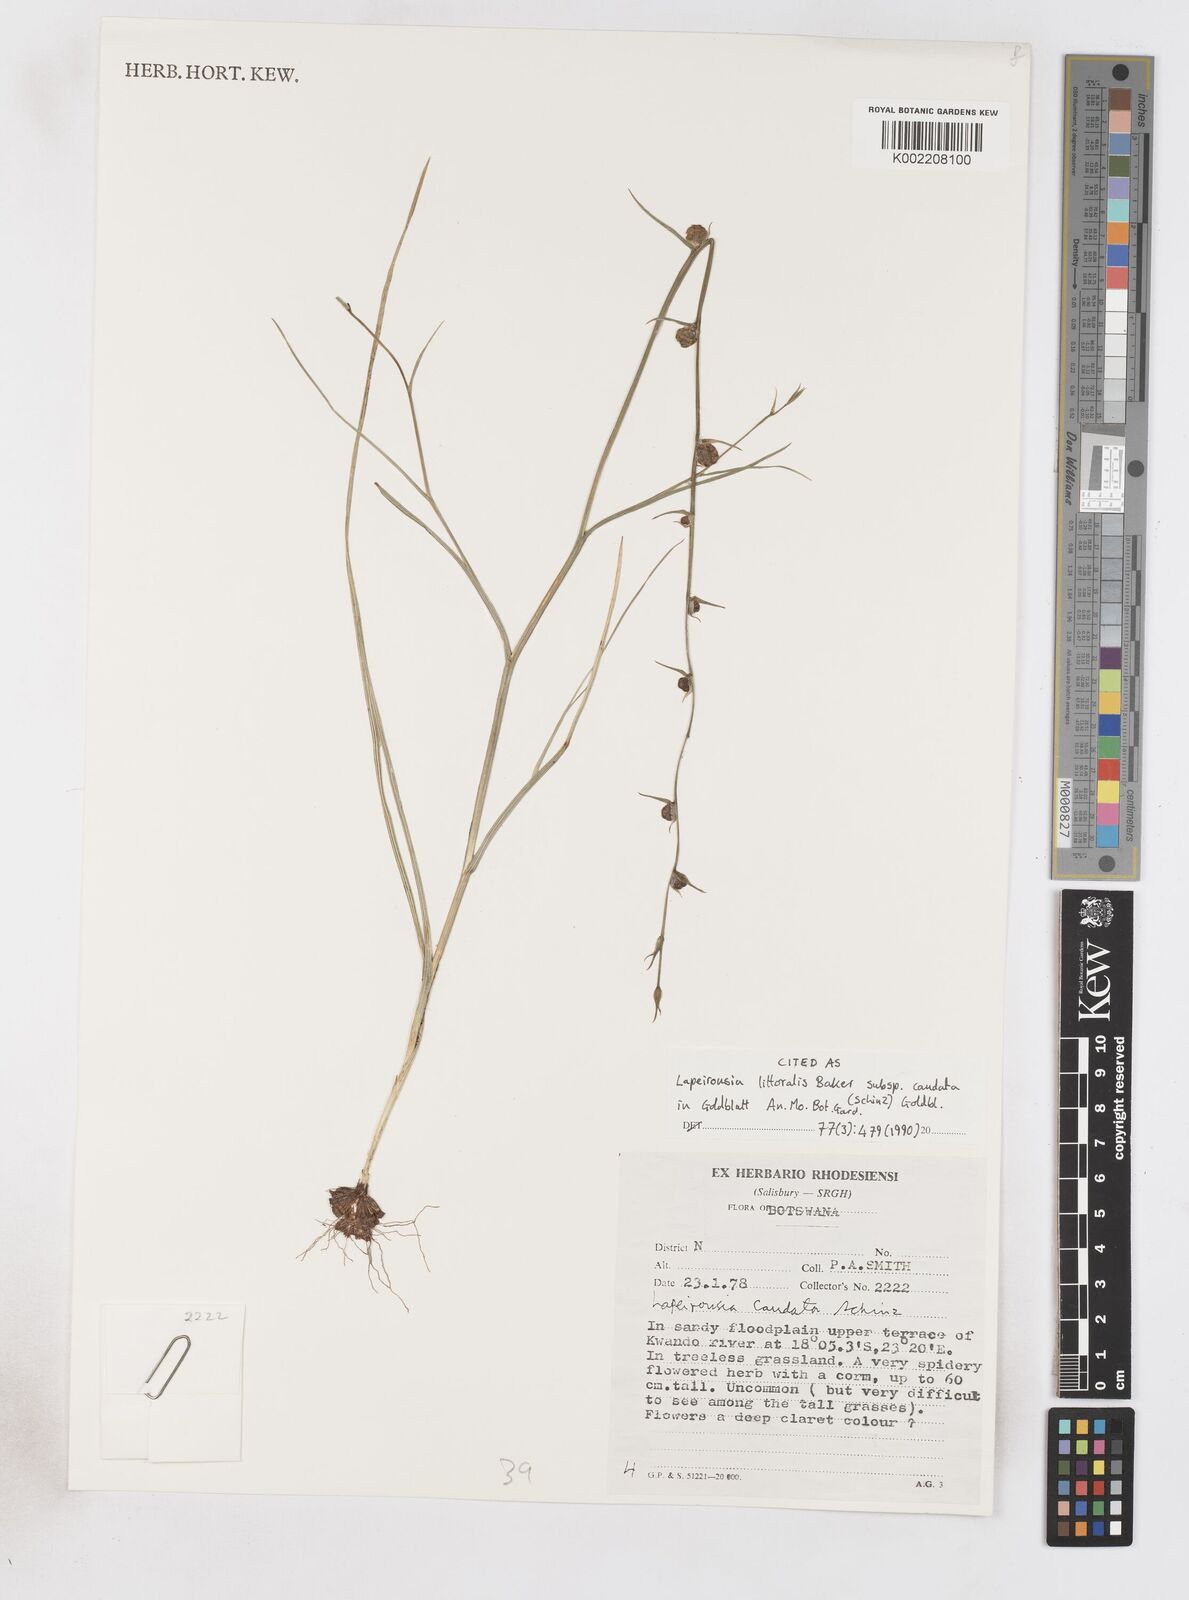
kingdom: Plantae
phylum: Tracheophyta
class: Liliopsida
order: Asparagales
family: Iridaceae
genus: Lapeirousia
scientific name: Lapeirousia caudata
